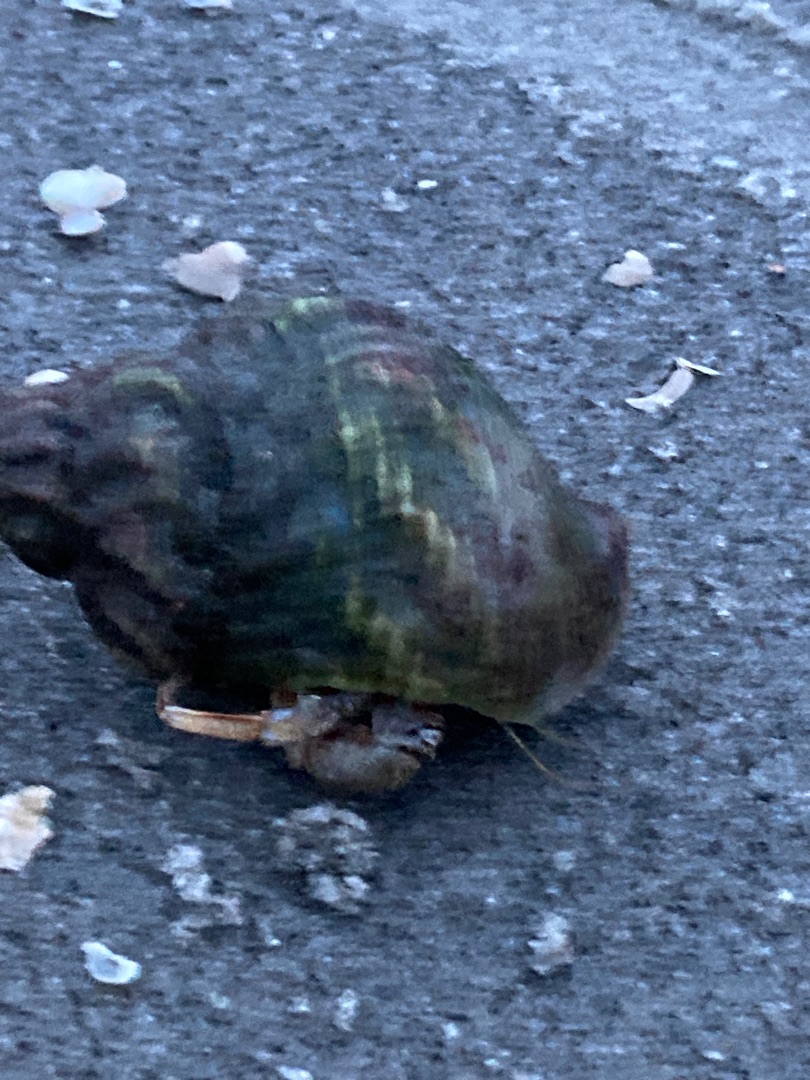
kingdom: Animalia
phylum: Arthropoda
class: Malacostraca
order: Decapoda
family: Paguridae
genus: Pagurus
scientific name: Pagurus bernhardus
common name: Almindelig eremitkrebs
